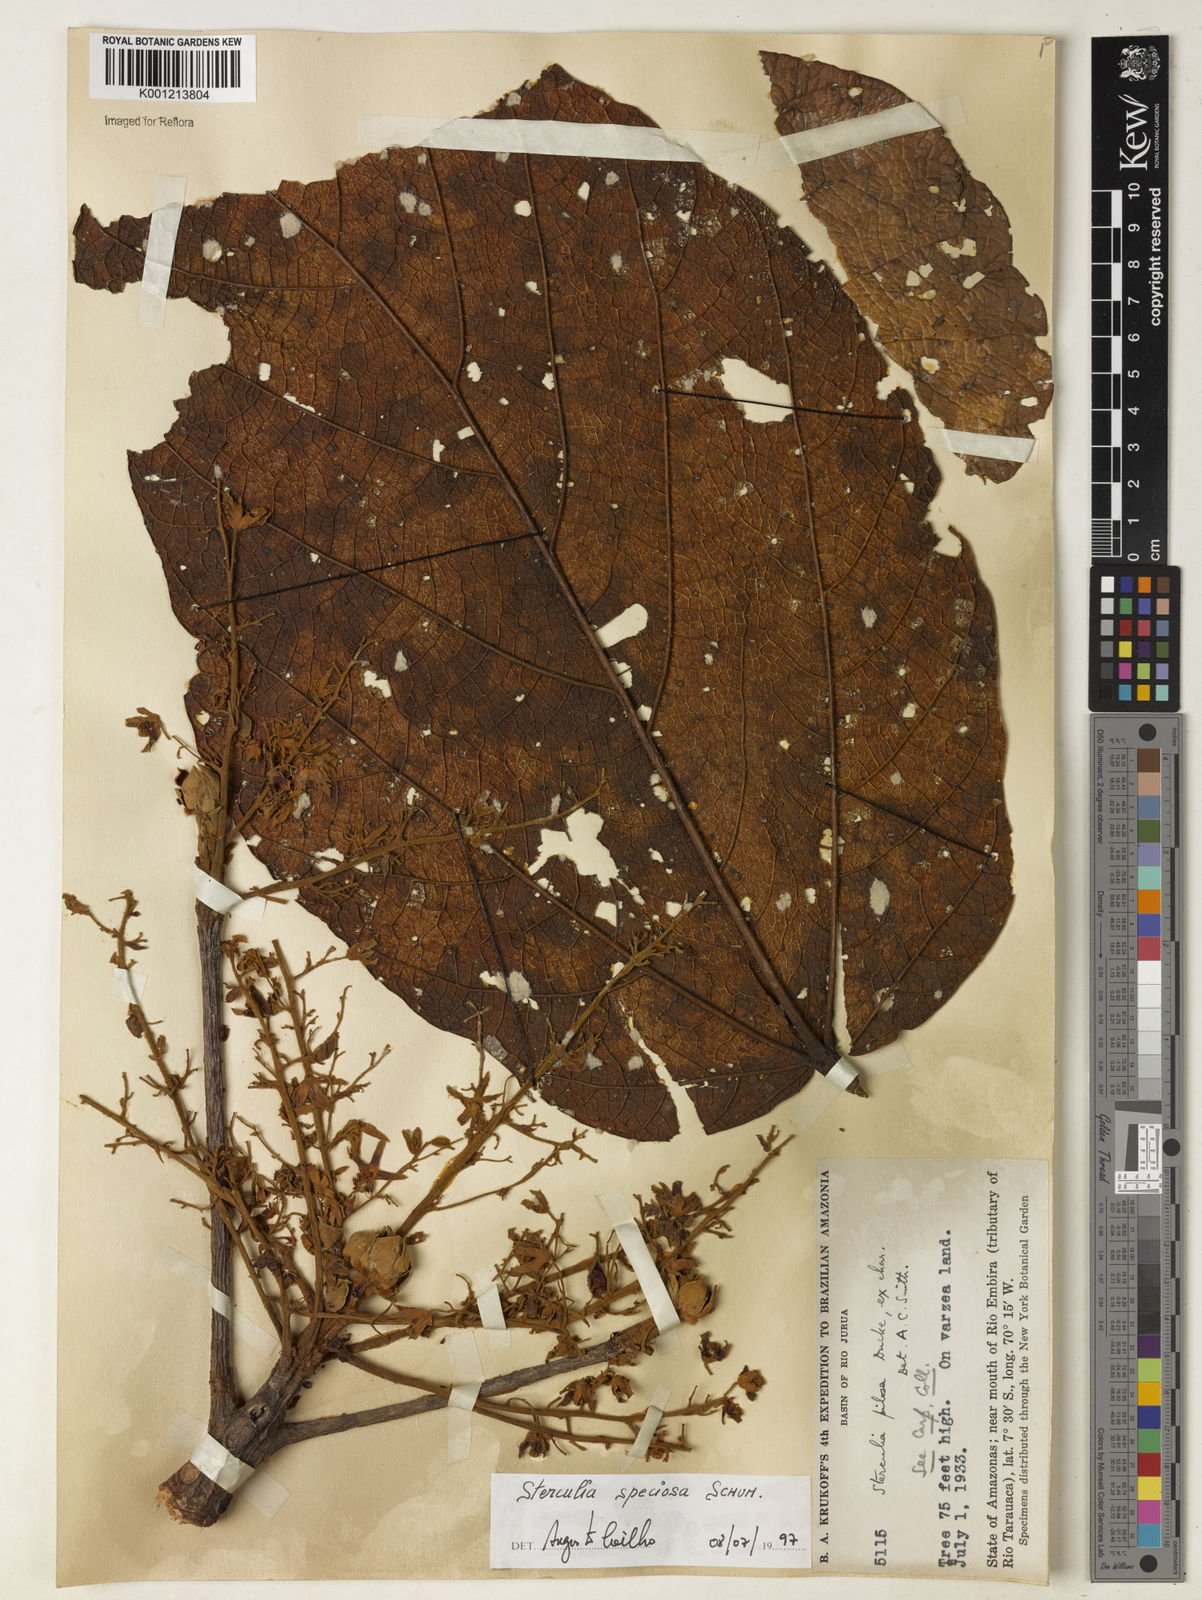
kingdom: Plantae
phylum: Tracheophyta
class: Magnoliopsida
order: Malvales
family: Malvaceae
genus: Sterculia
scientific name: Sterculia speciosa
